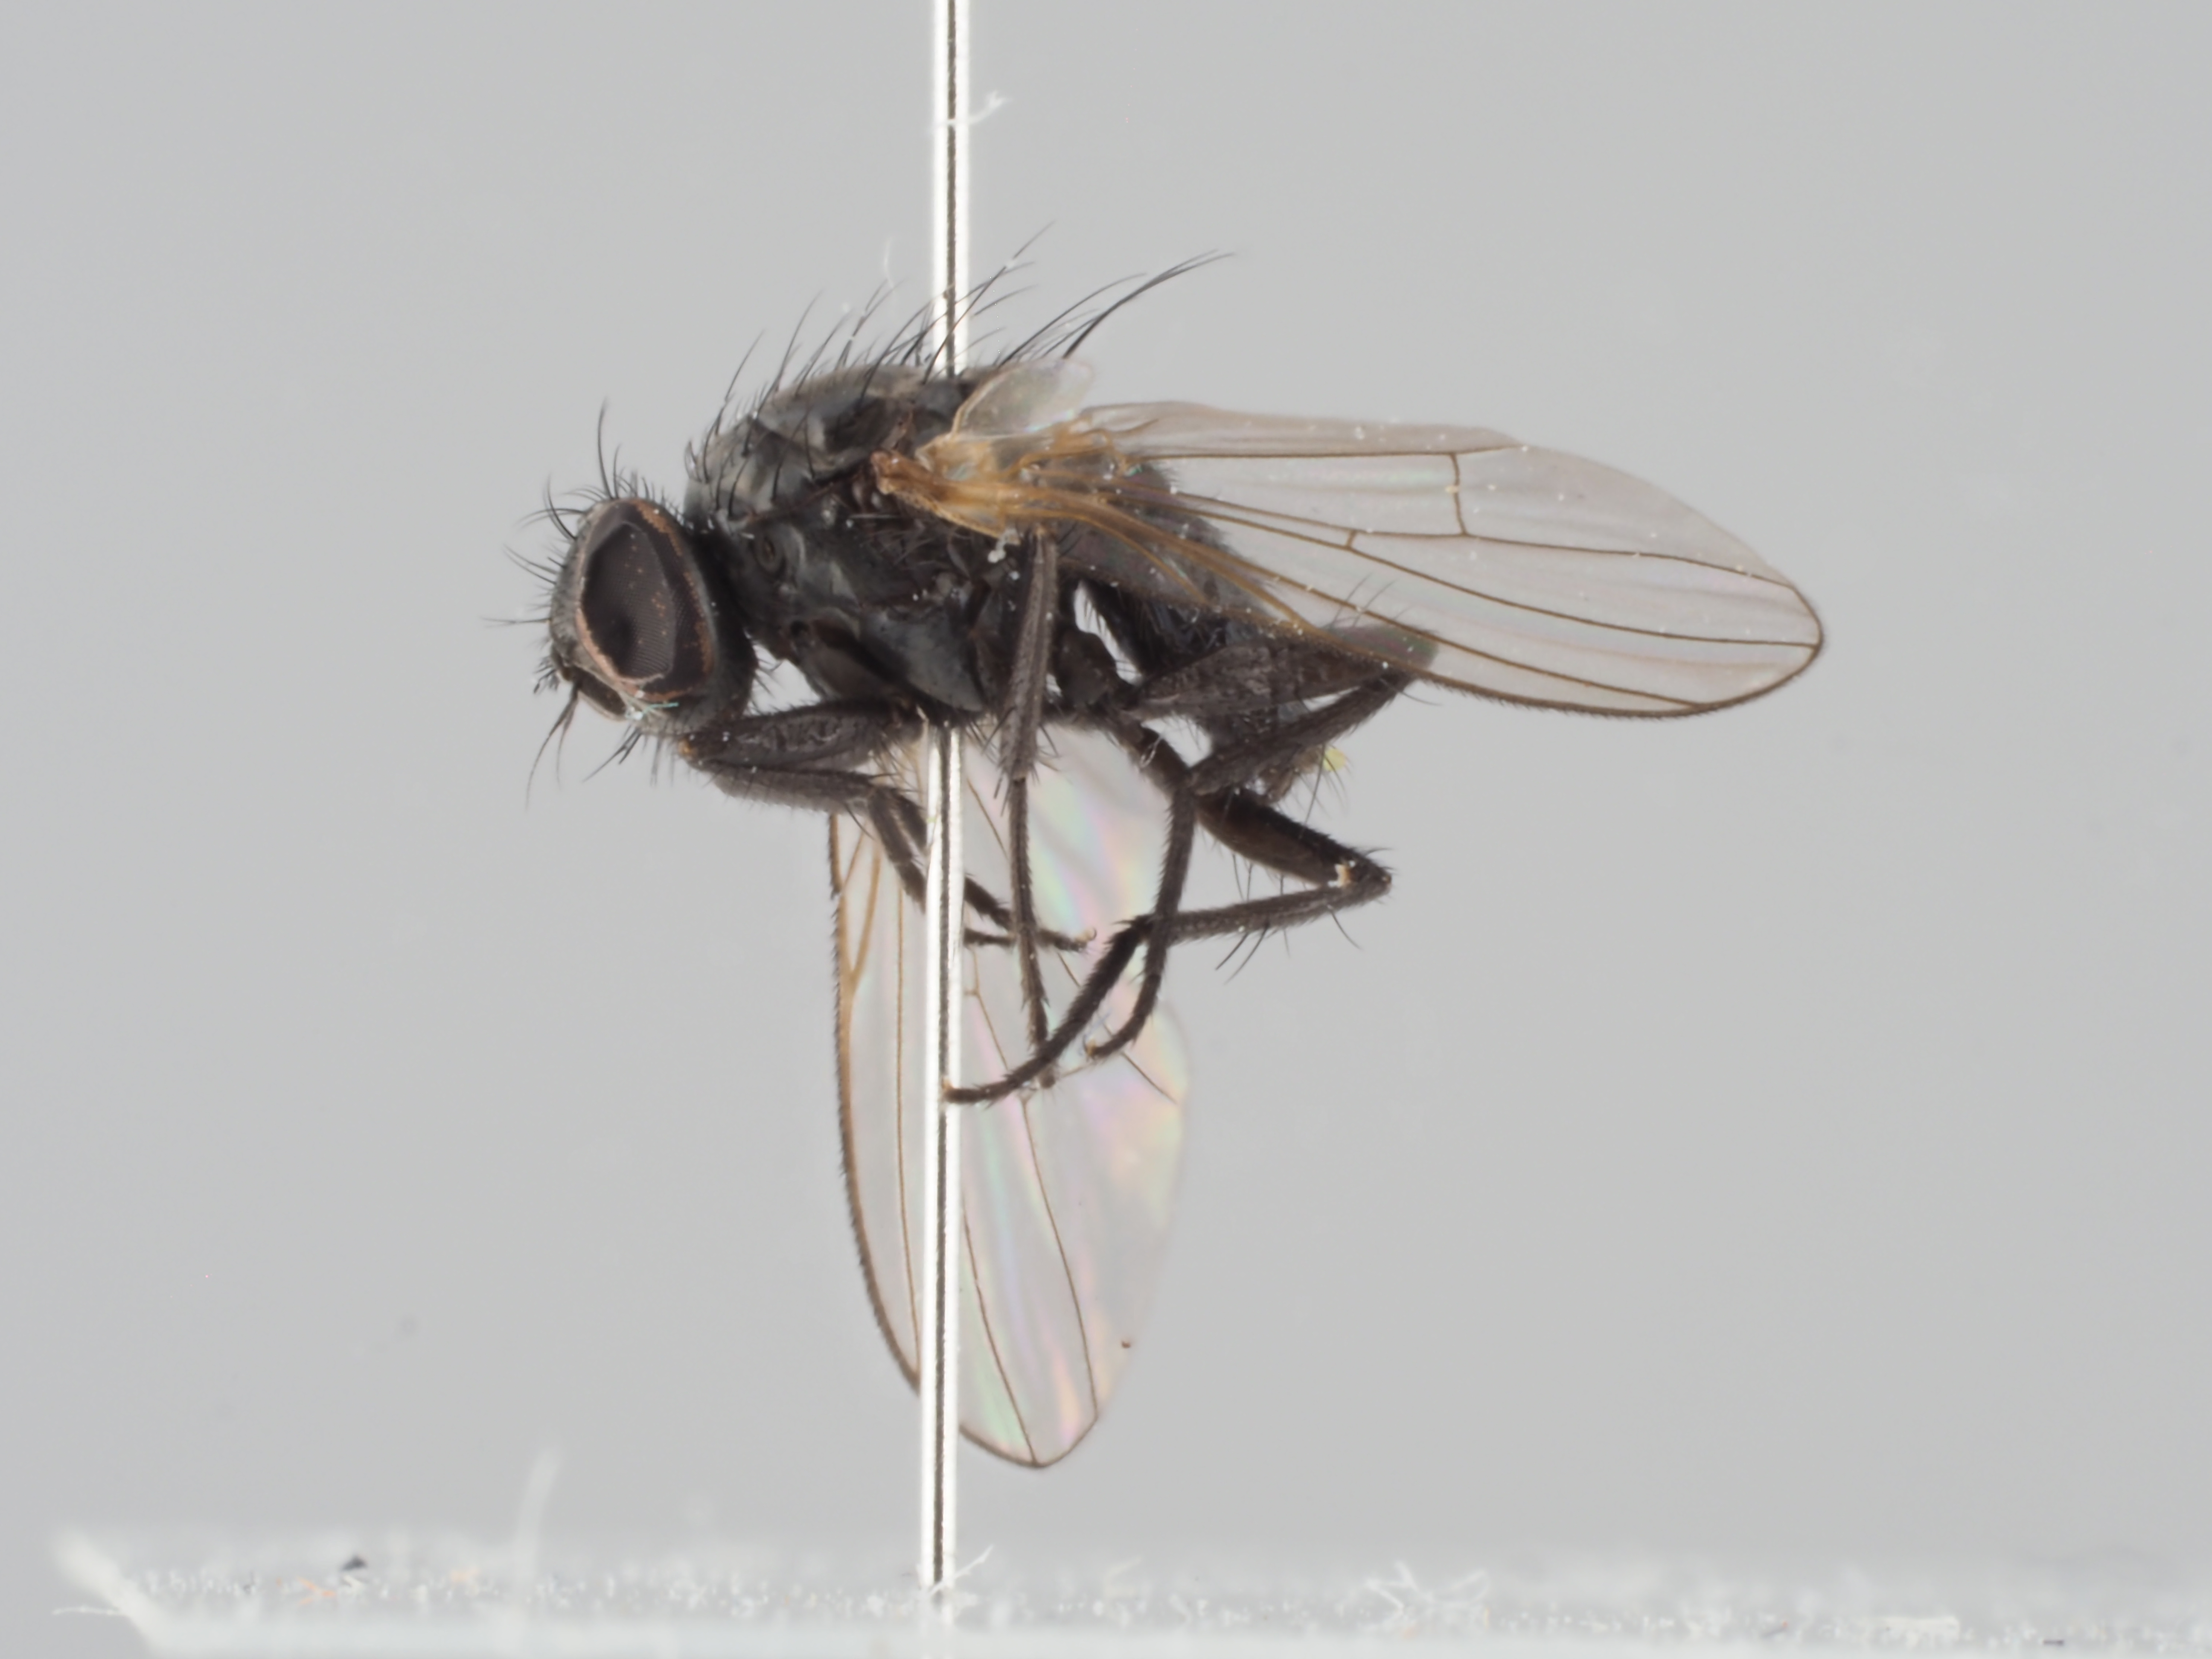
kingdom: Animalia
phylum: Arthropoda
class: Insecta
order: Diptera
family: Fanniidae
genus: Fannia
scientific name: Fannia hirticeps
